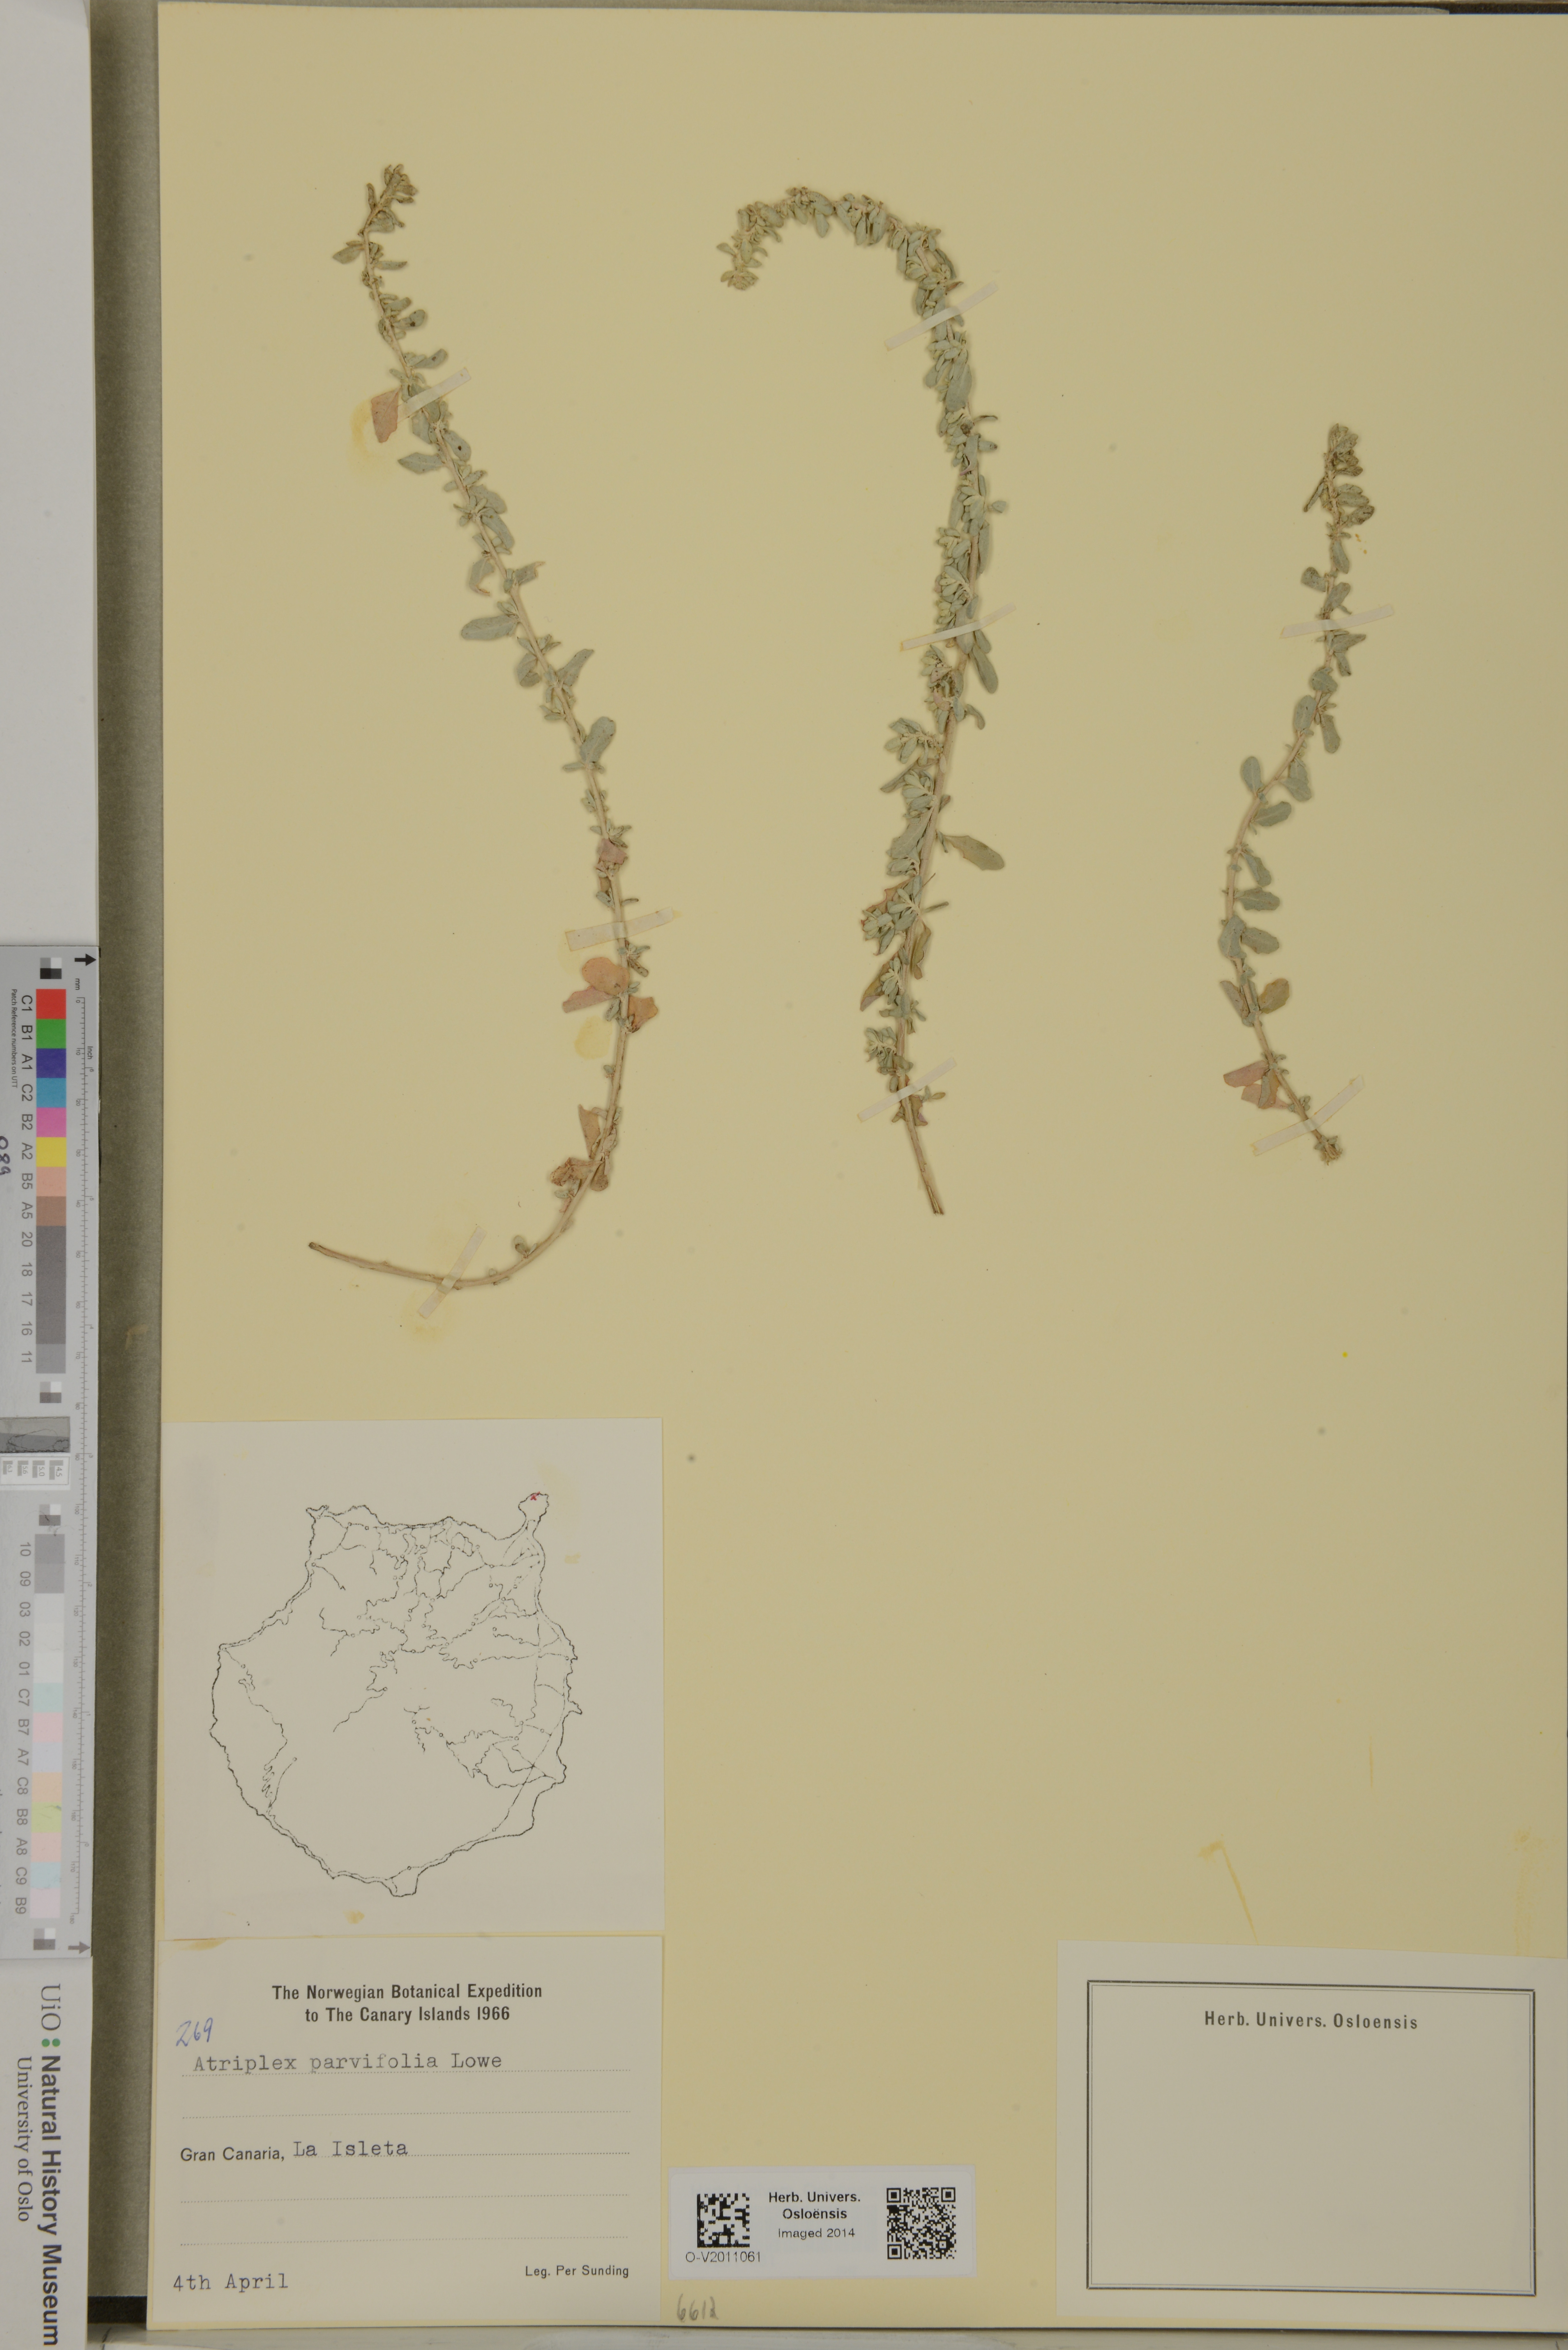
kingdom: Plantae
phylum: Tracheophyta
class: Magnoliopsida
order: Caryophyllales
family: Amaranthaceae
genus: Atriplex
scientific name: Atriplex glauca
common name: Waxy saltbush
